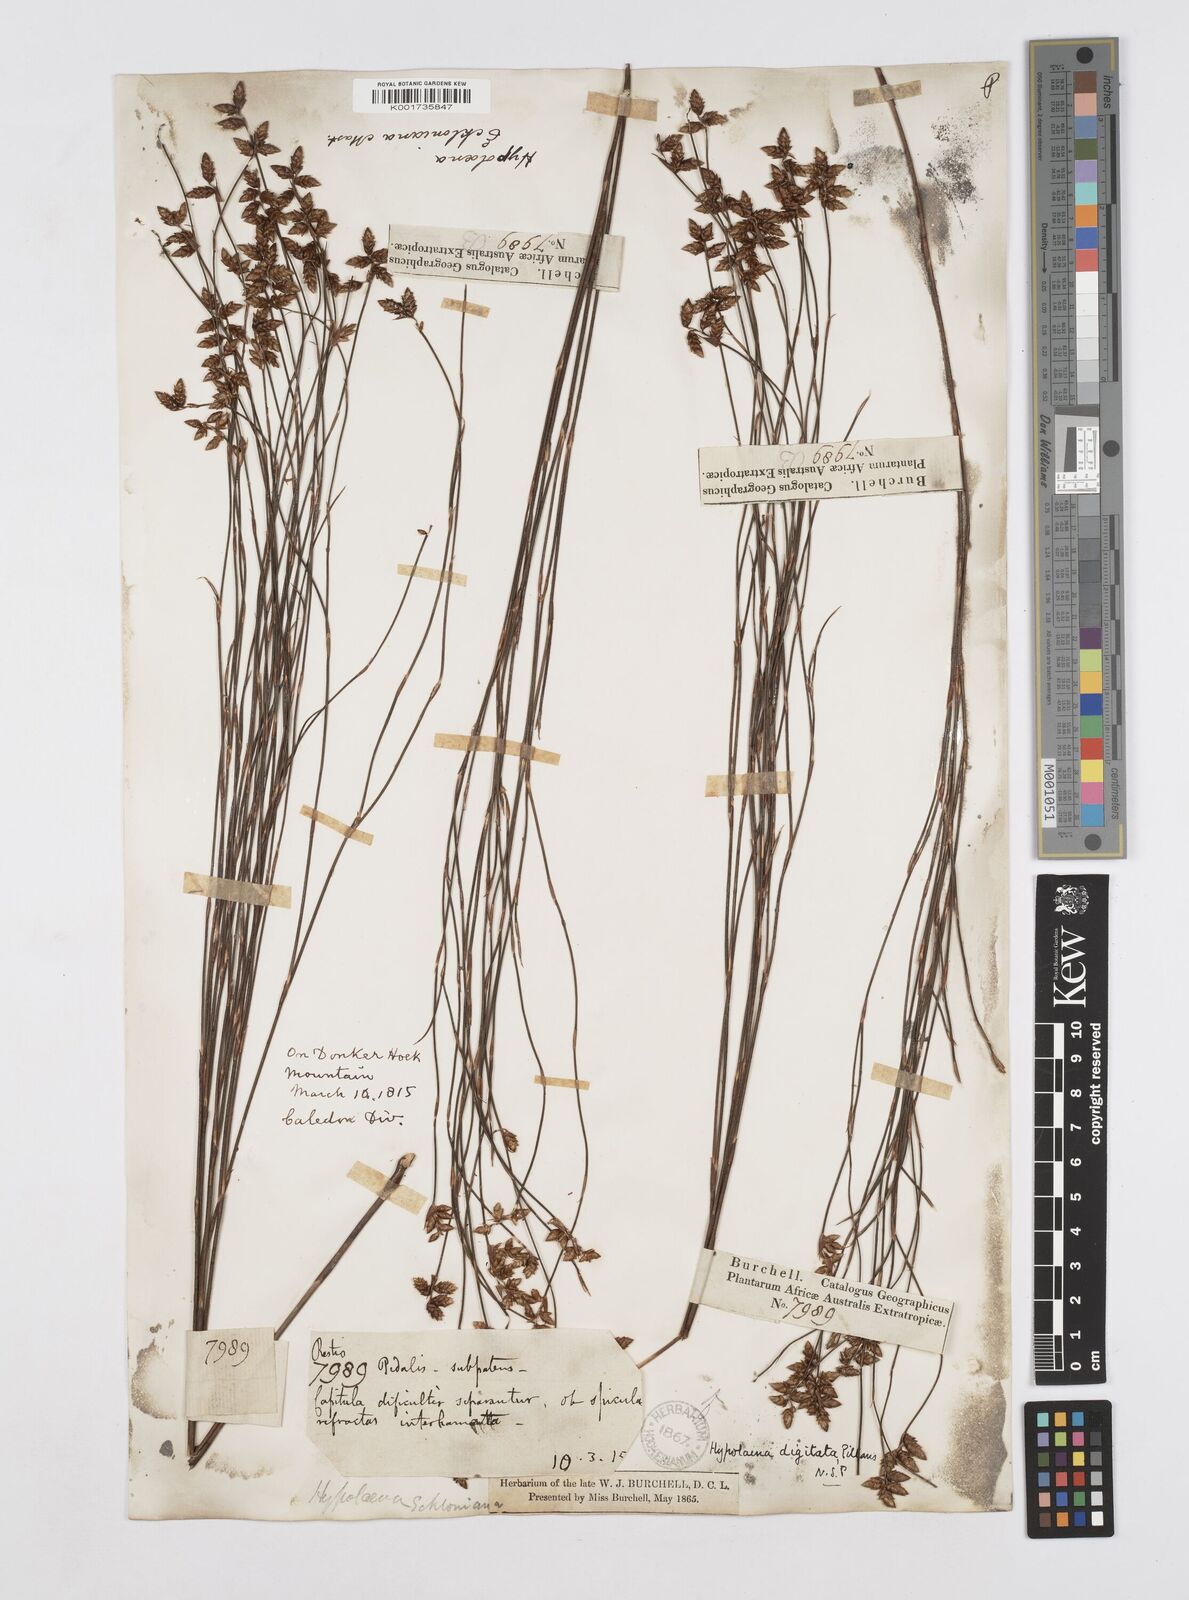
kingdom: Plantae
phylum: Tracheophyta
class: Liliopsida
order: Poales
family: Restionaceae
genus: Mastersiella
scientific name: Mastersiella digitata
